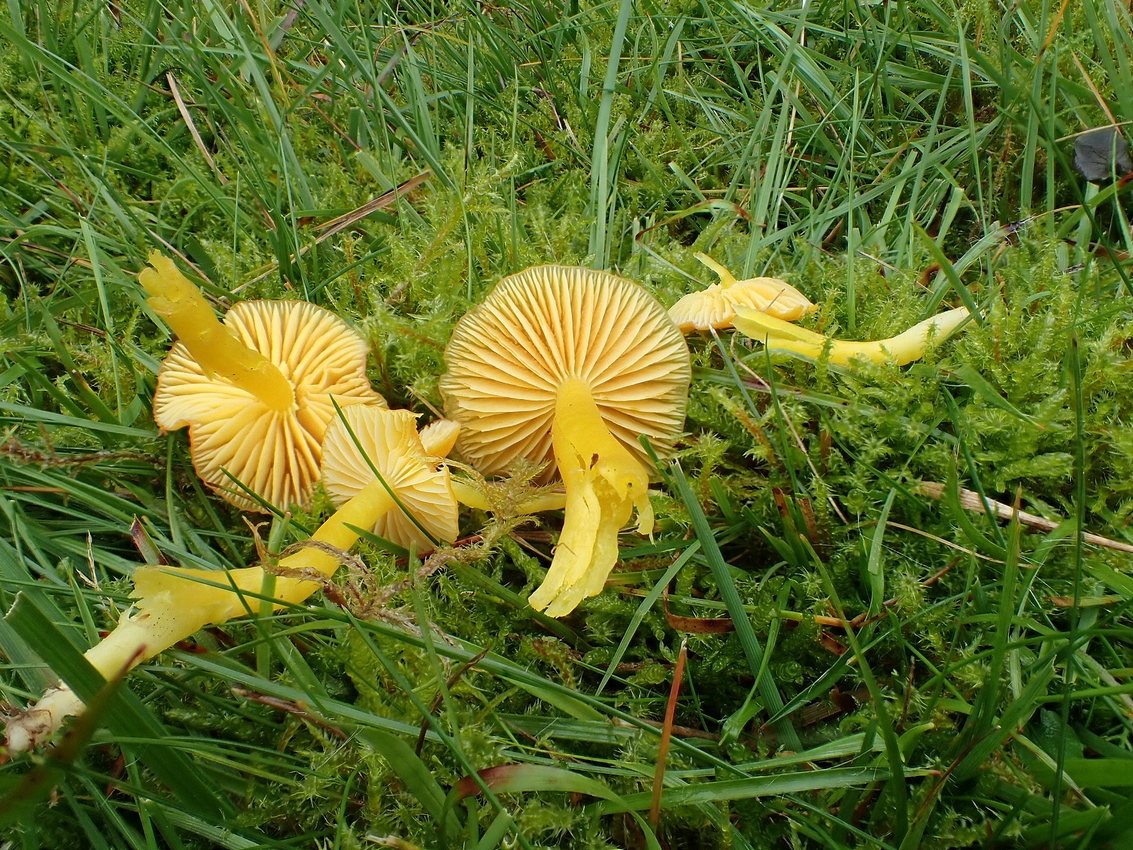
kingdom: Fungi
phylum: Basidiomycota
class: Agaricomycetes
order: Agaricales
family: Hygrophoraceae
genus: Hygrocybe
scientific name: Hygrocybe ceracea
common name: voksgul vokshat
